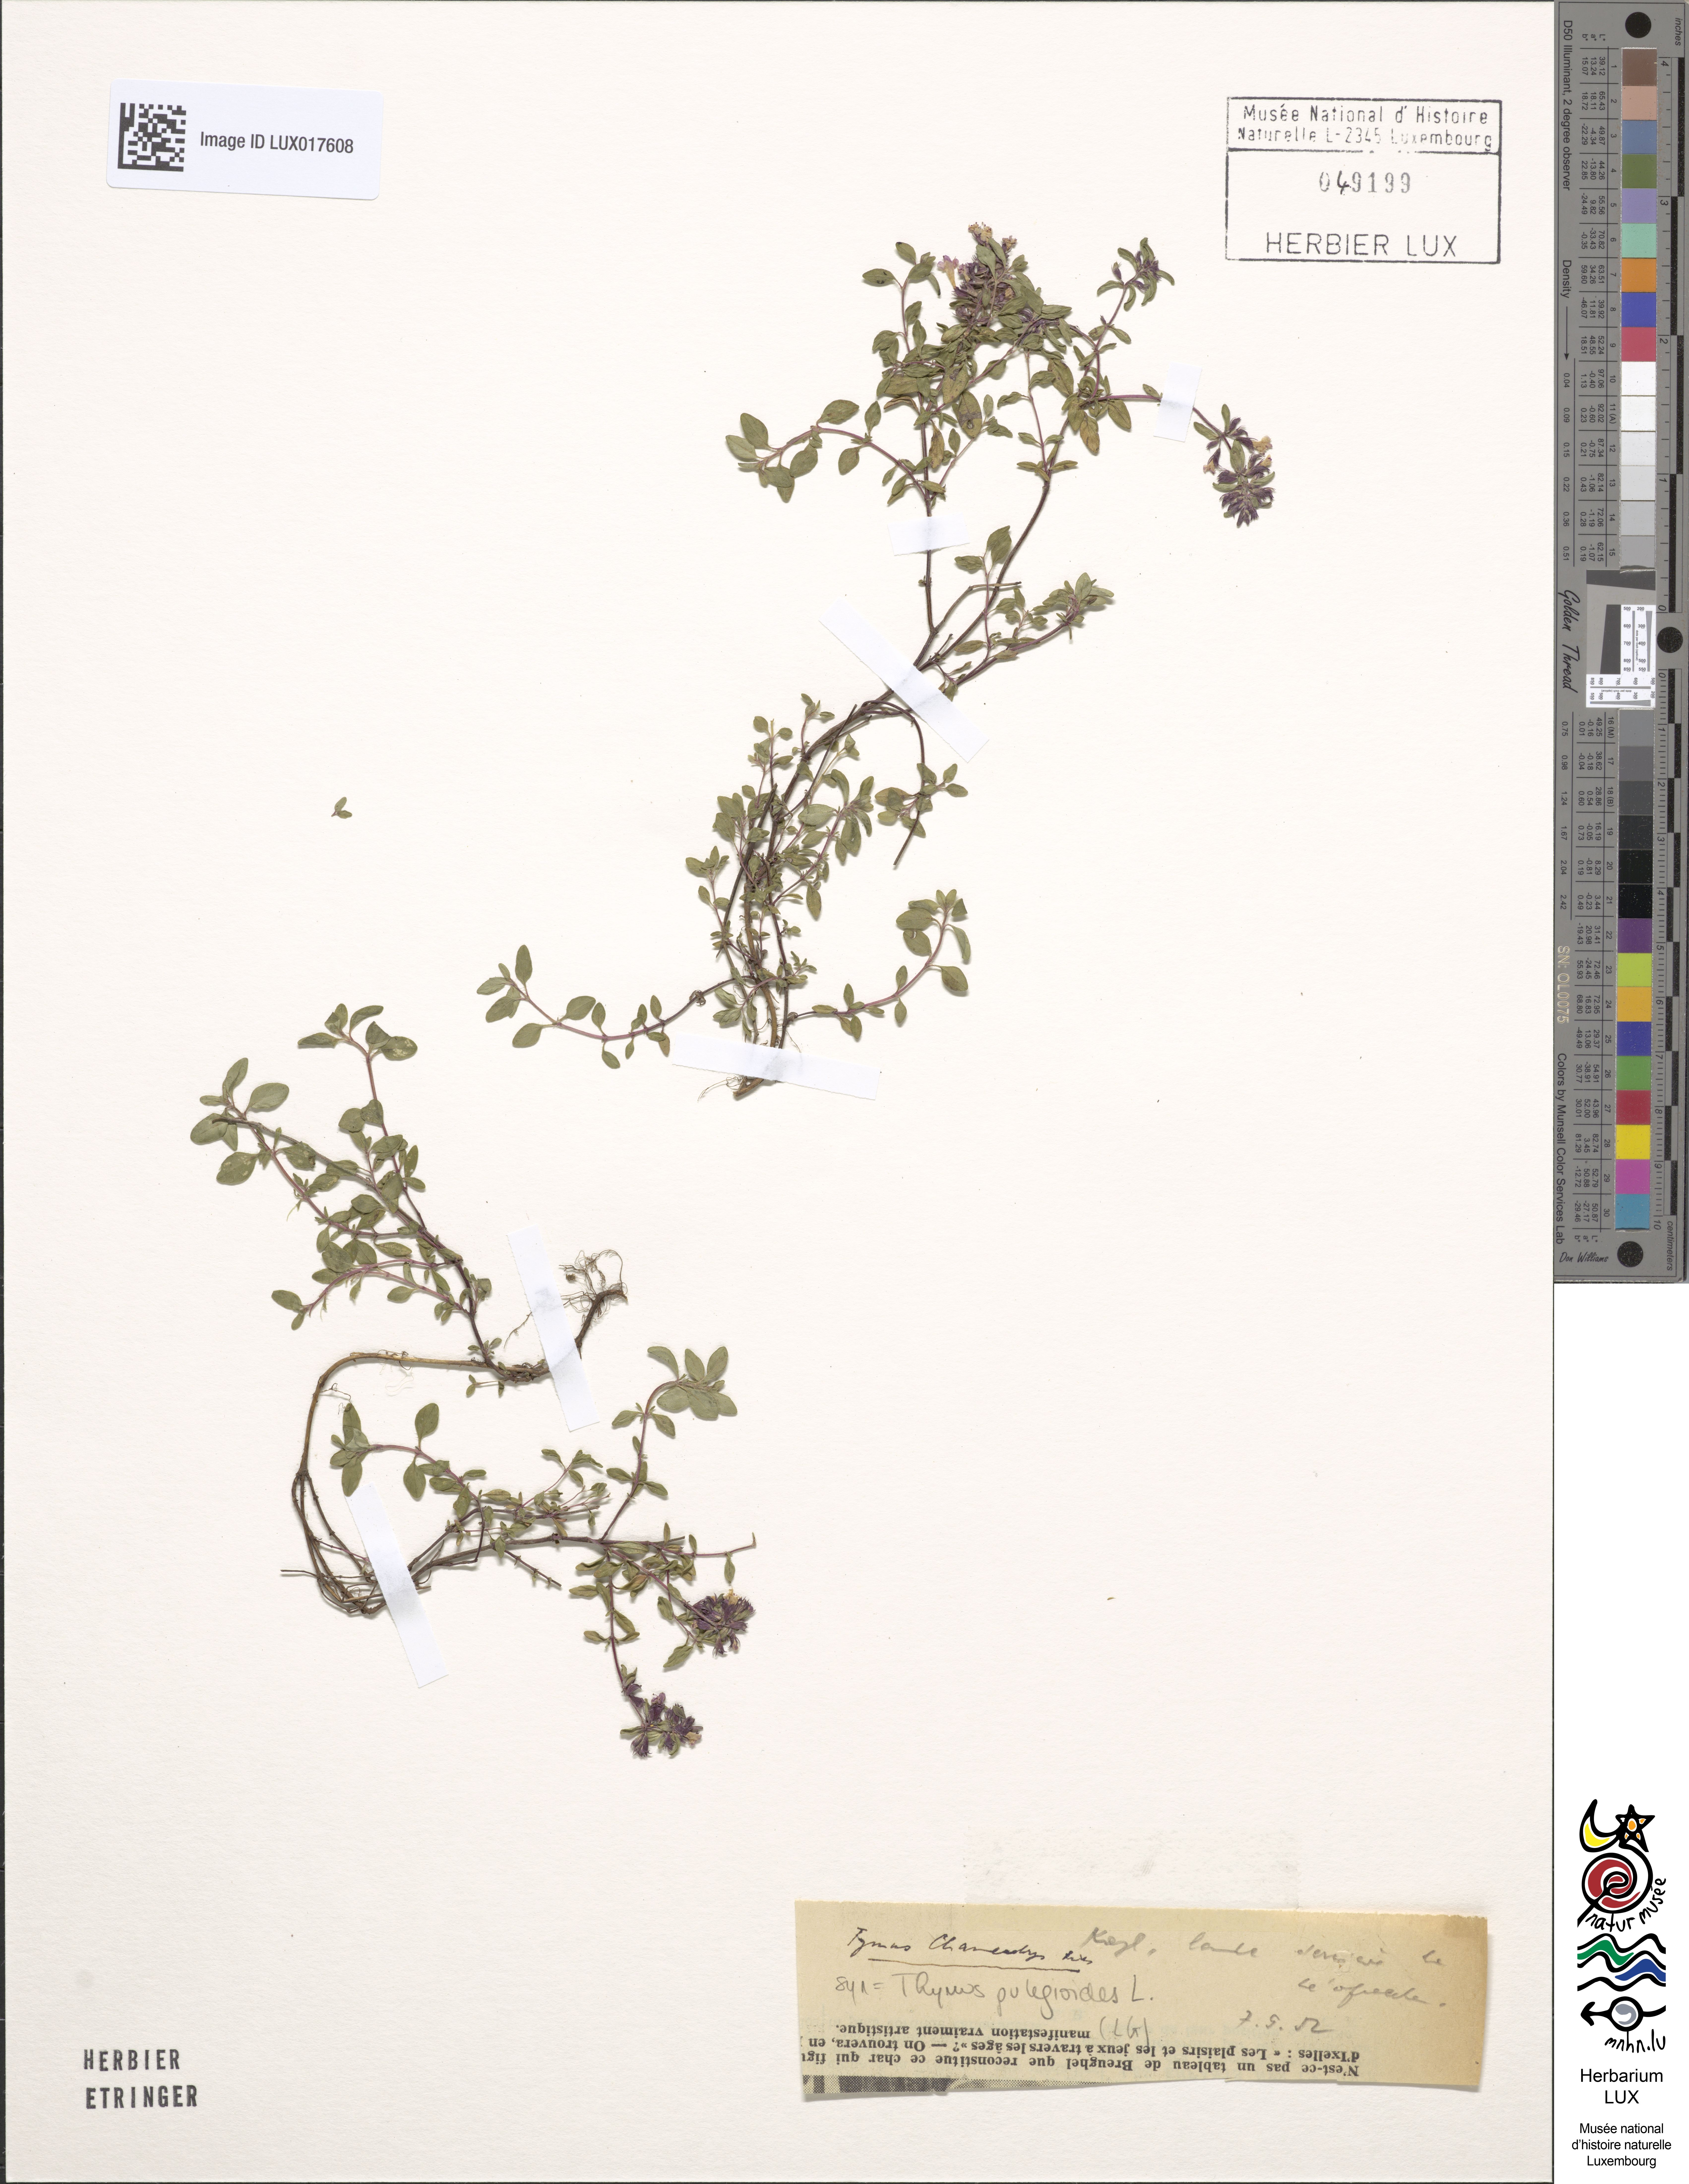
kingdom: Plantae
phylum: Tracheophyta
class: Magnoliopsida
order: Lamiales
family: Lamiaceae
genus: Thymus
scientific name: Thymus pulegioides
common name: Large thyme
